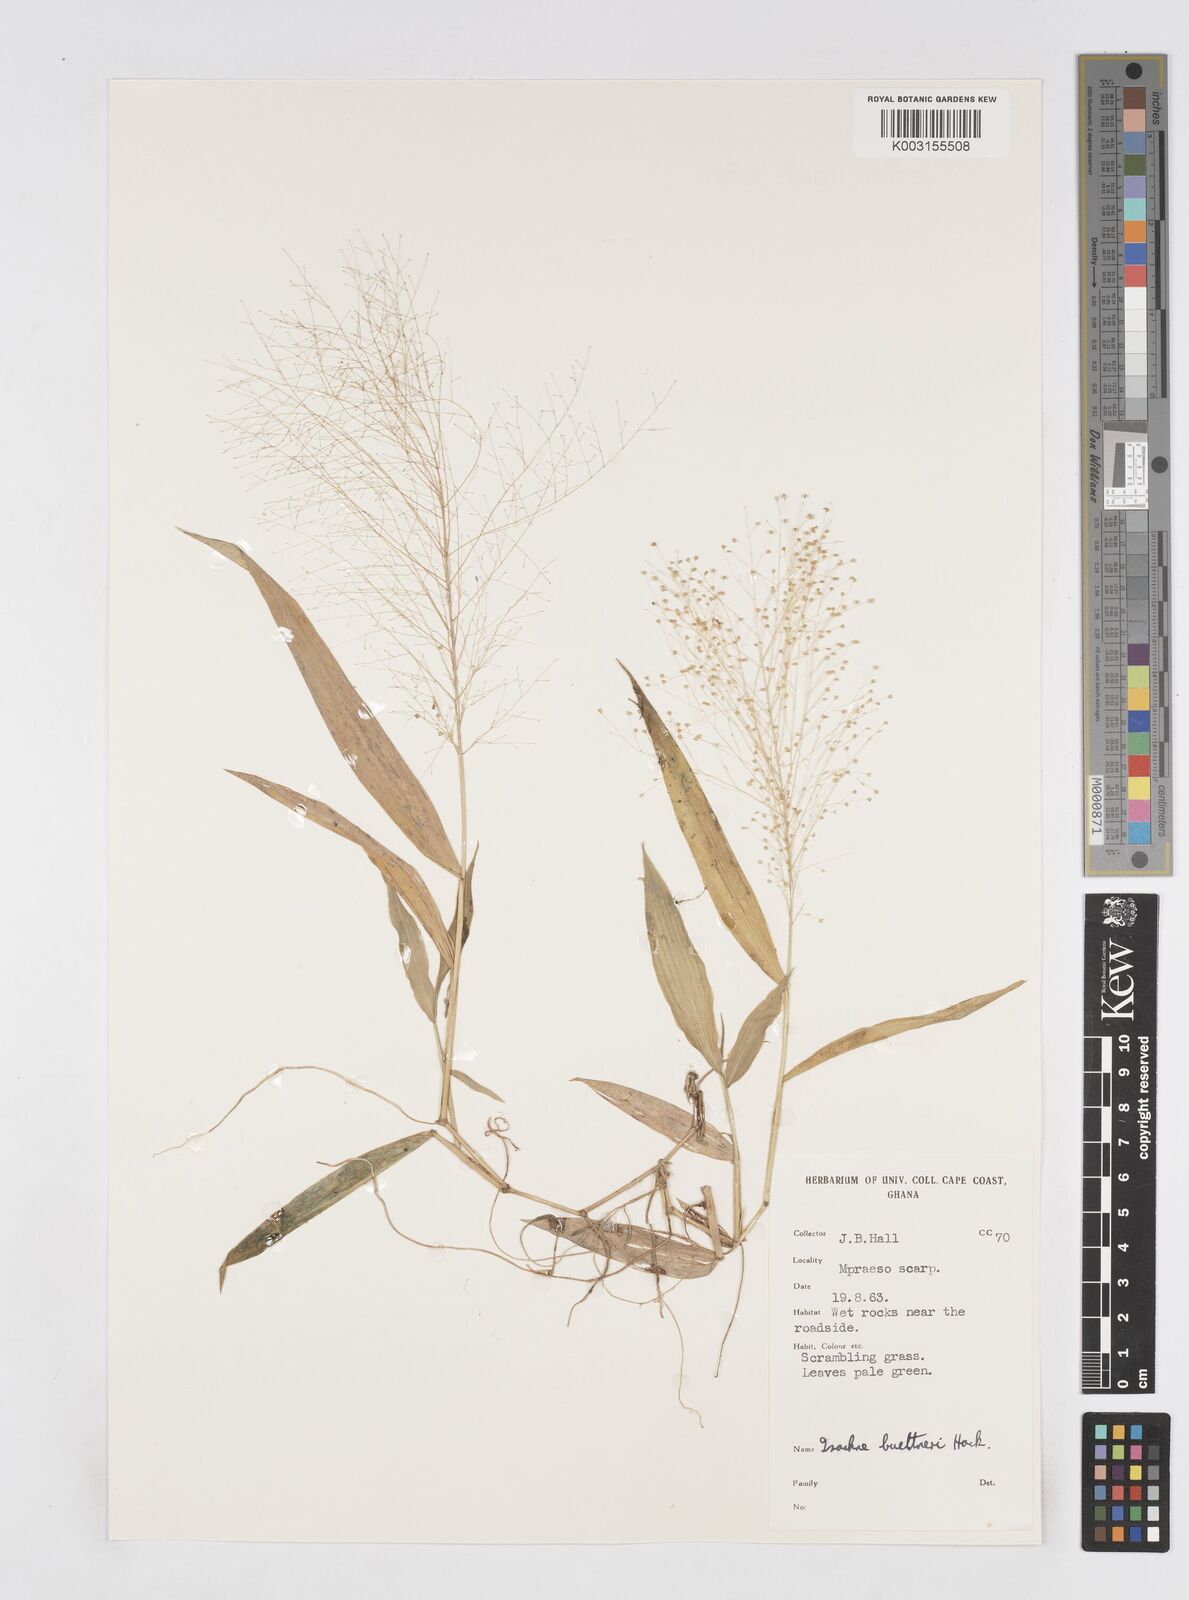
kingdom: Plantae
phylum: Tracheophyta
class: Liliopsida
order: Poales
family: Poaceae
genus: Isachne
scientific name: Isachne albens
